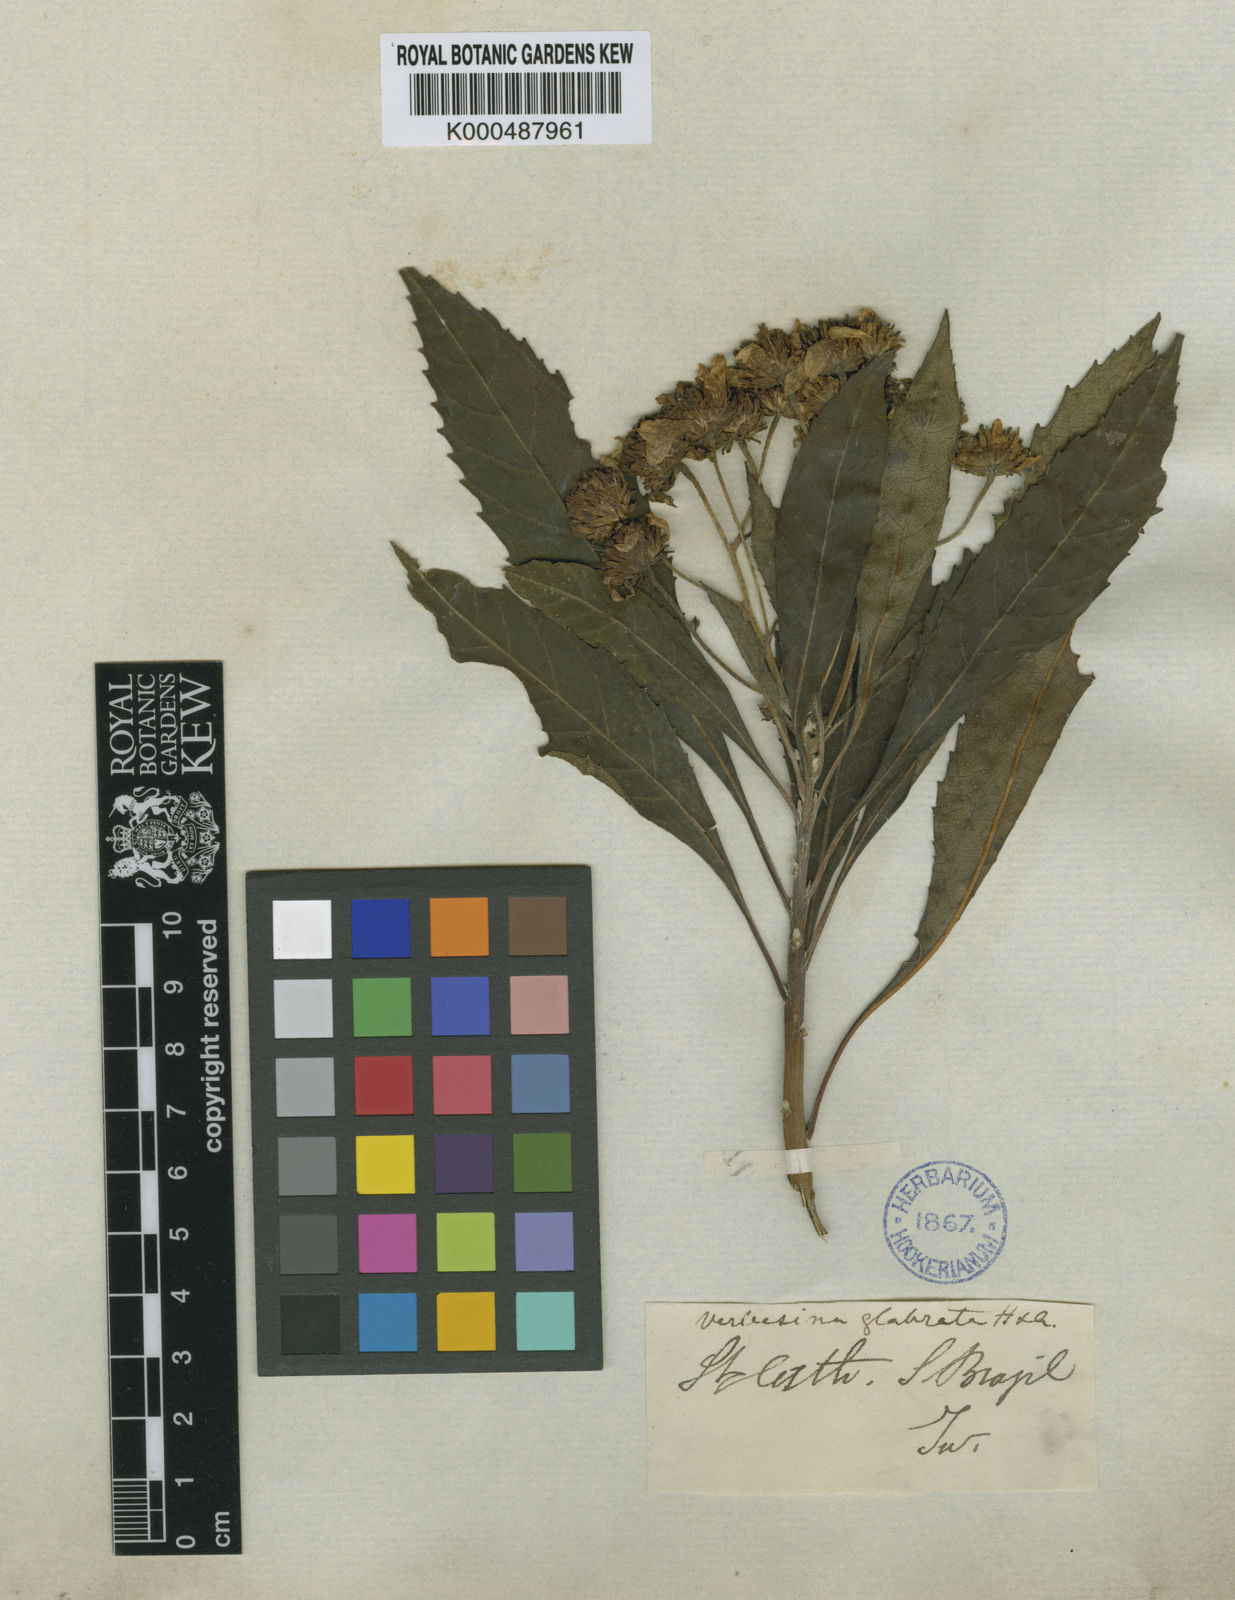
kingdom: Plantae
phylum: Tracheophyta
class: Magnoliopsida
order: Asterales
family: Asteraceae
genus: Verbesina
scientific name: Verbesina glabrata
